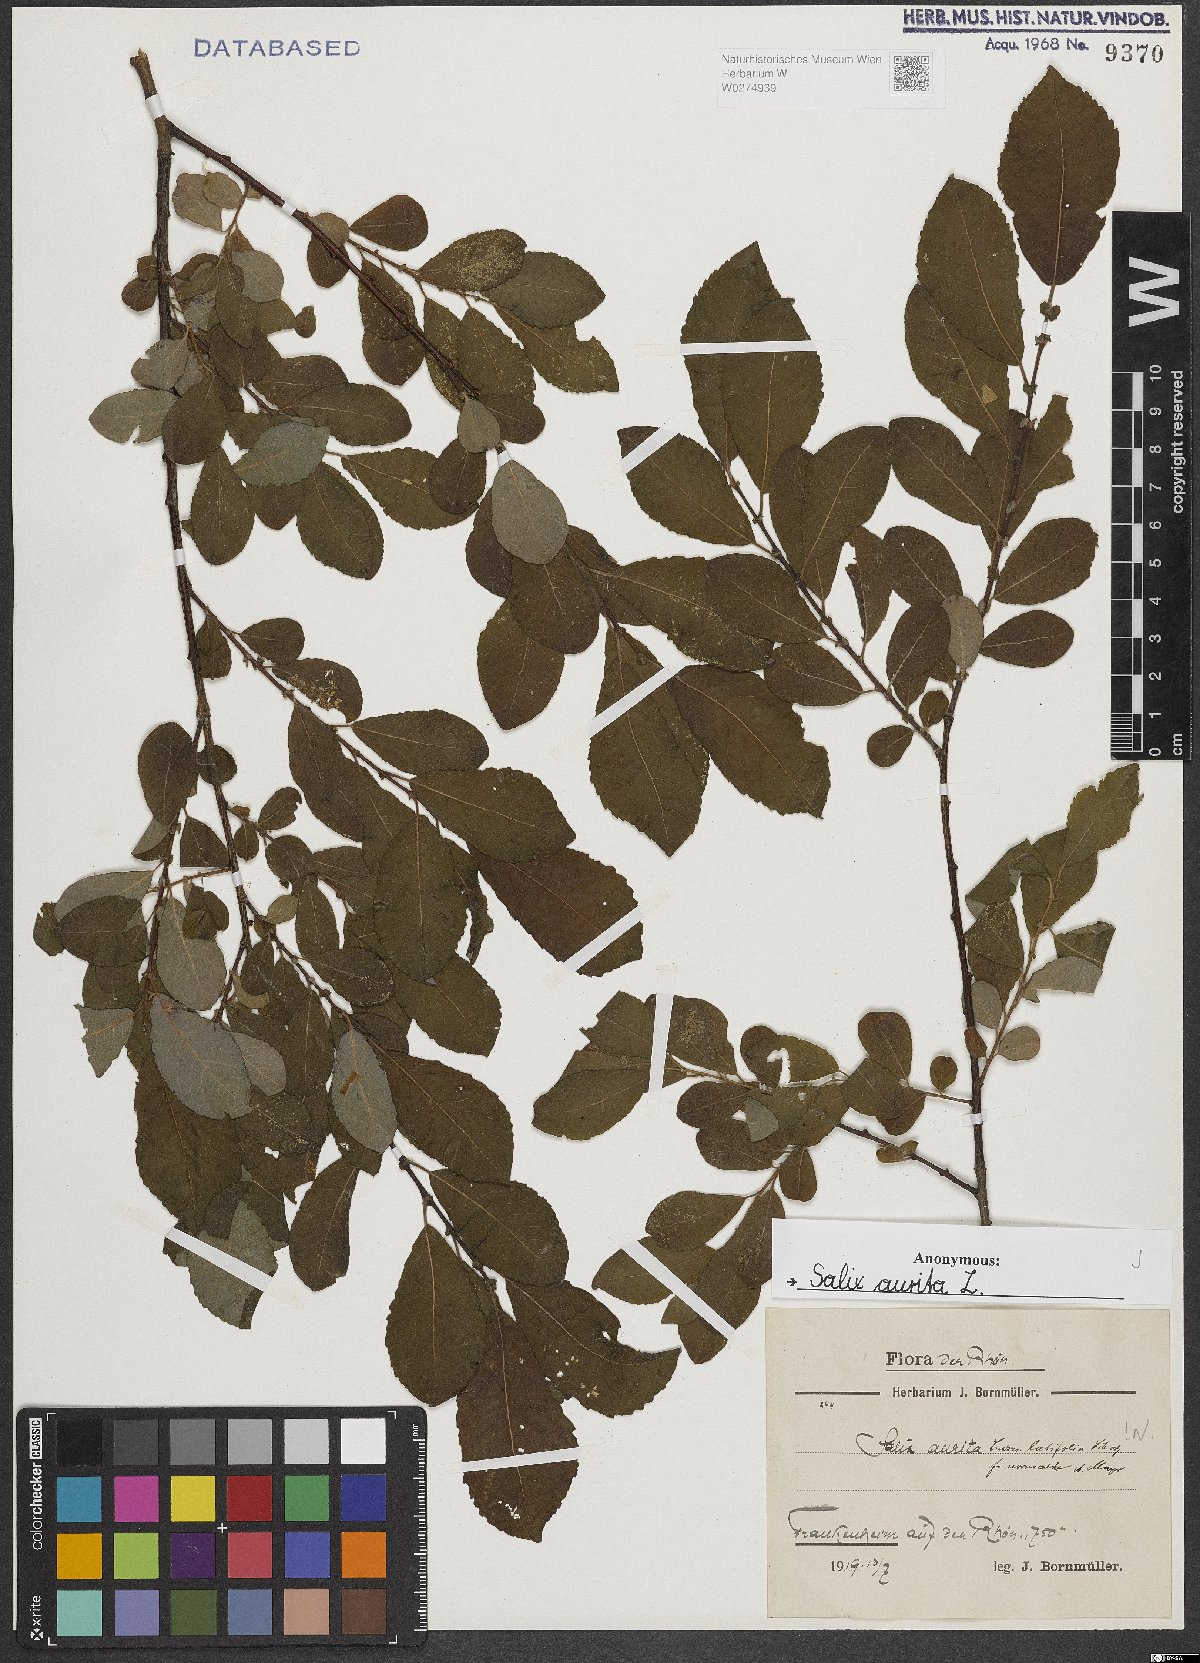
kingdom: Plantae
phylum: Tracheophyta
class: Magnoliopsida
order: Malpighiales
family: Salicaceae
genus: Salix
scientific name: Salix aurita
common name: Eared willow
